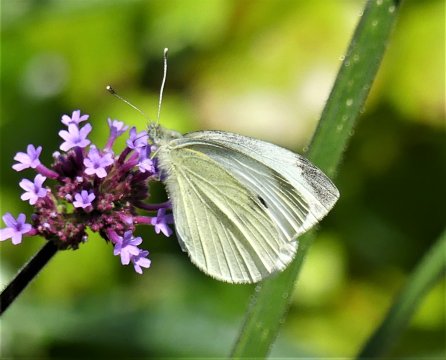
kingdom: Animalia
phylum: Arthropoda
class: Insecta
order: Lepidoptera
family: Pieridae
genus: Pieris
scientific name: Pieris rapae
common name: Cabbage White
